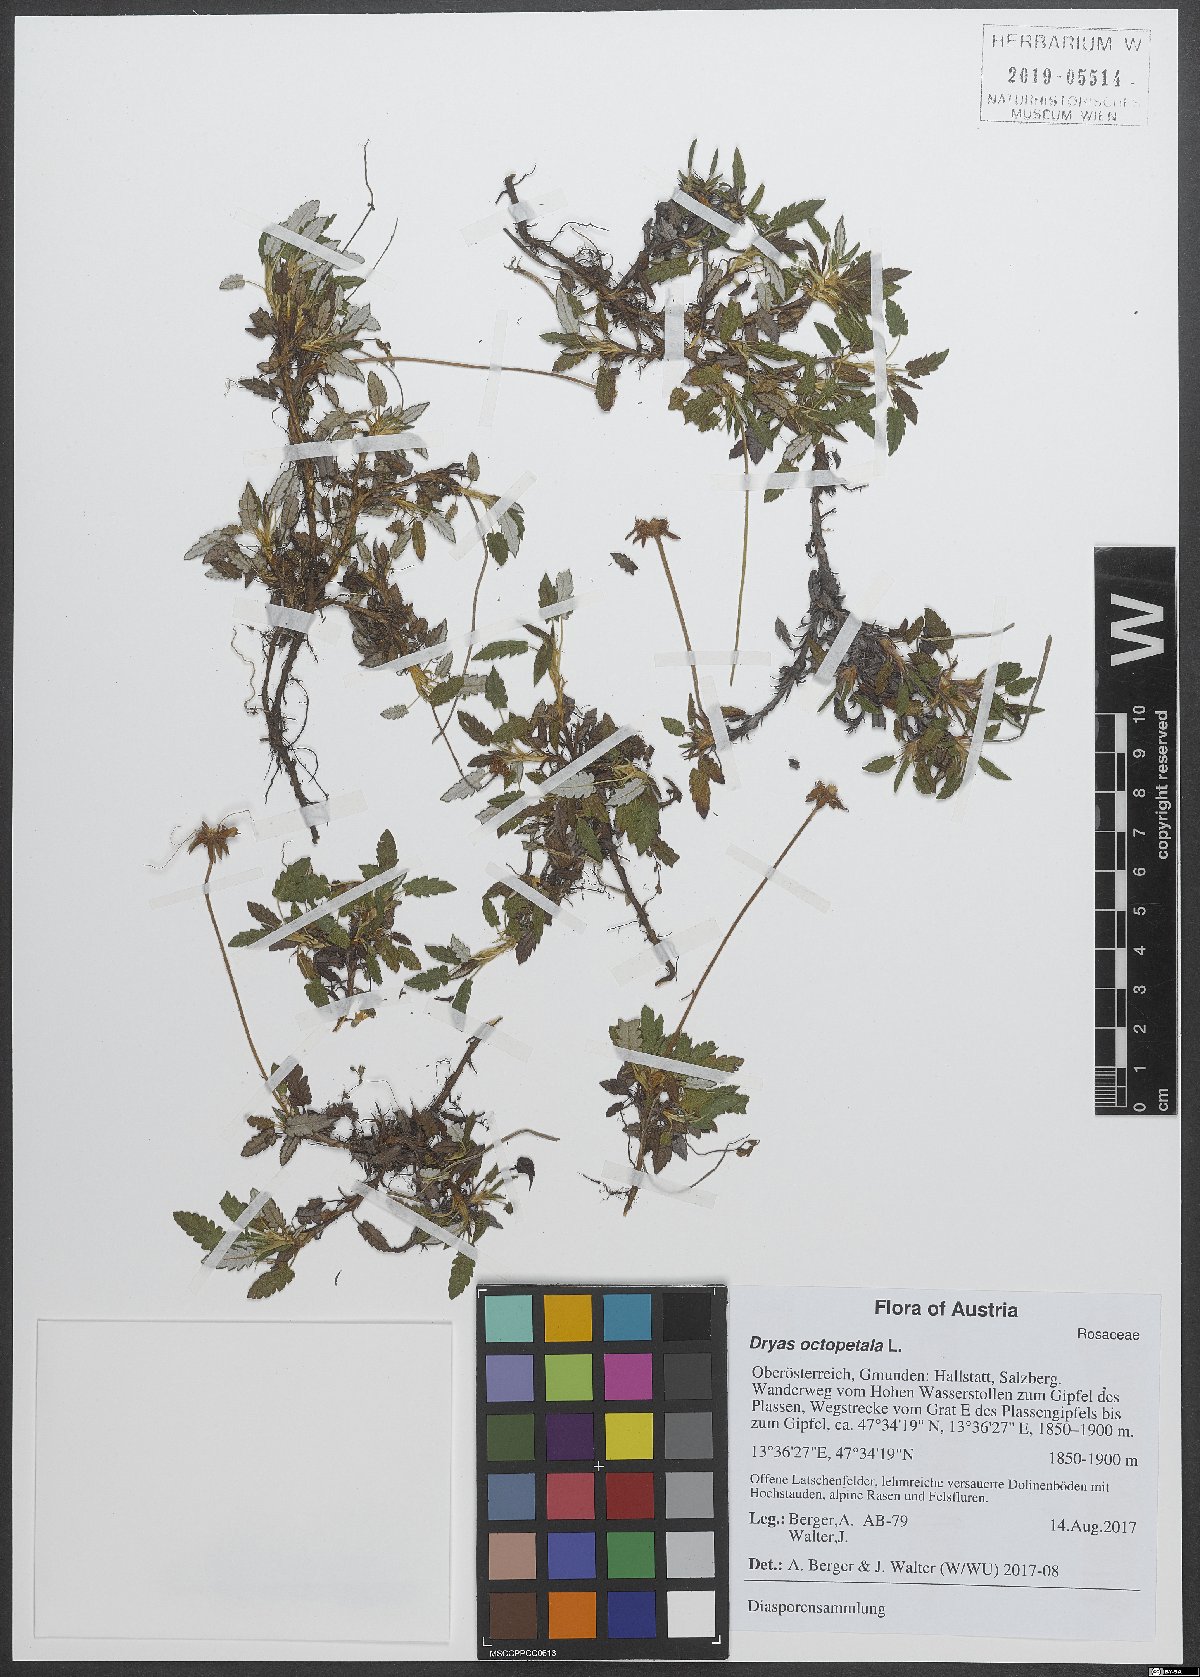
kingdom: Plantae
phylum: Tracheophyta
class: Magnoliopsida
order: Rosales
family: Rosaceae
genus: Dryas
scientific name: Dryas octopetala
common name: Eight-petal mountain-avens
